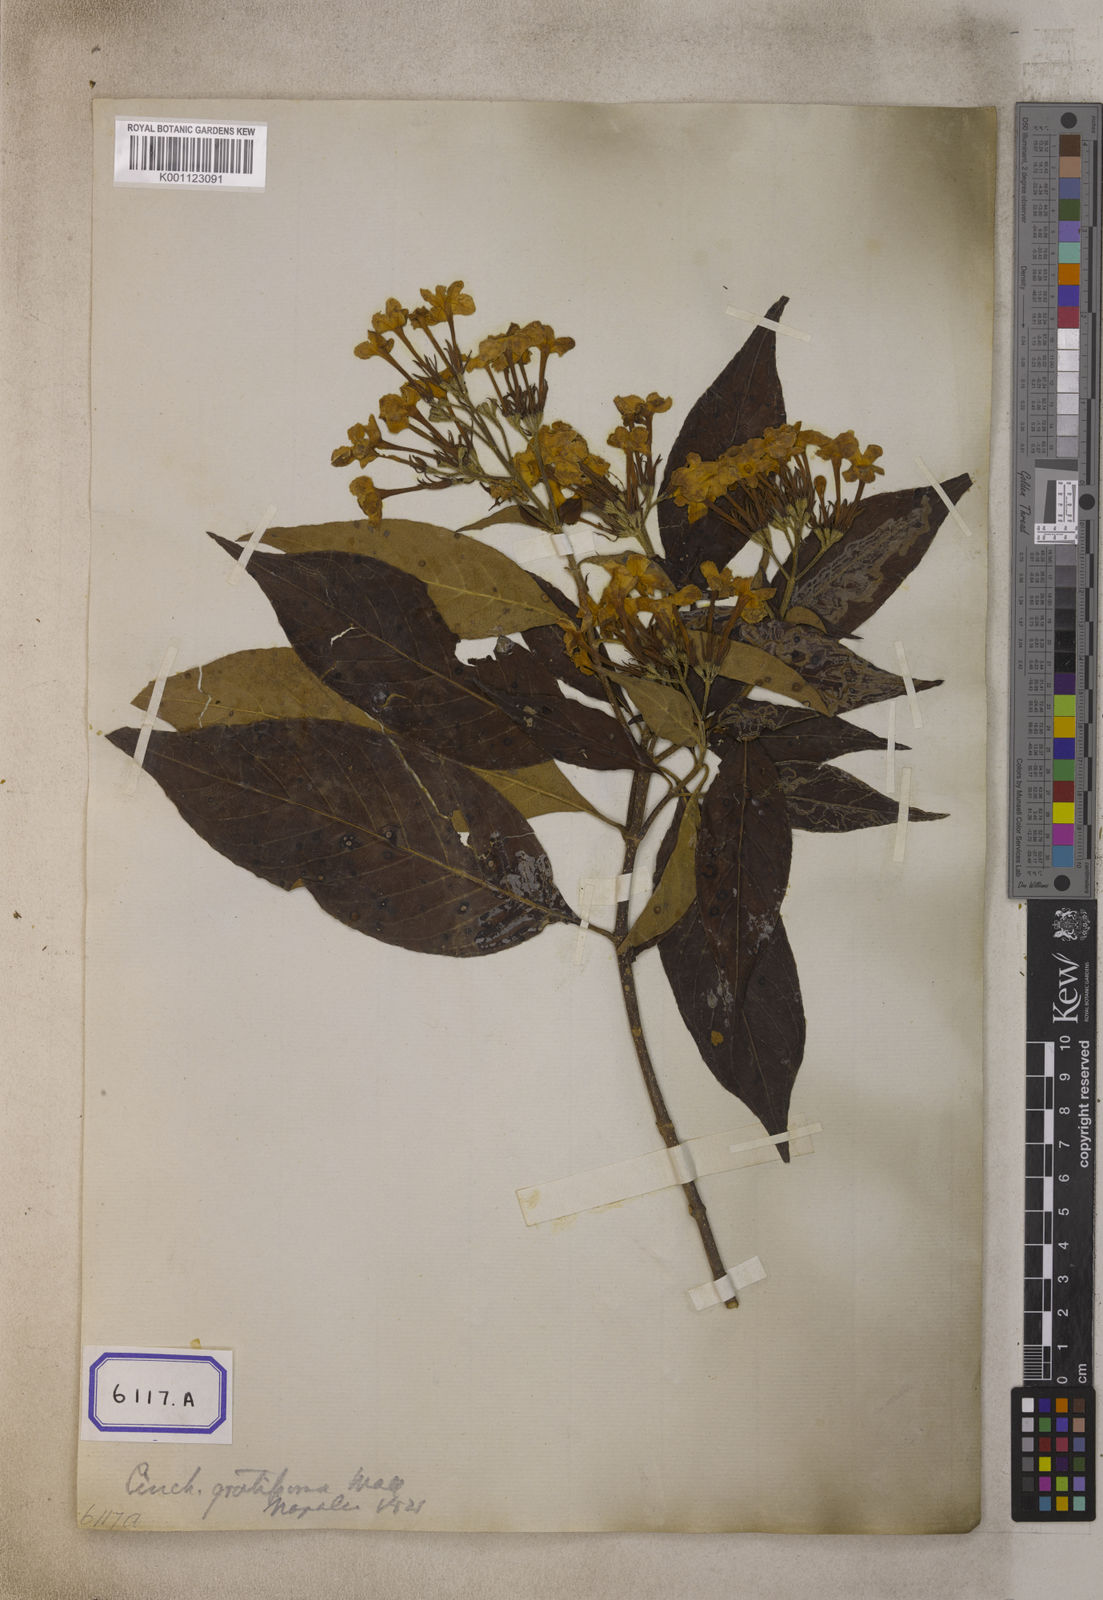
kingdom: Plantae
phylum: Tracheophyta
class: Magnoliopsida
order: Gentianales
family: Rubiaceae
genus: Luculia
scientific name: Luculia gratissima
